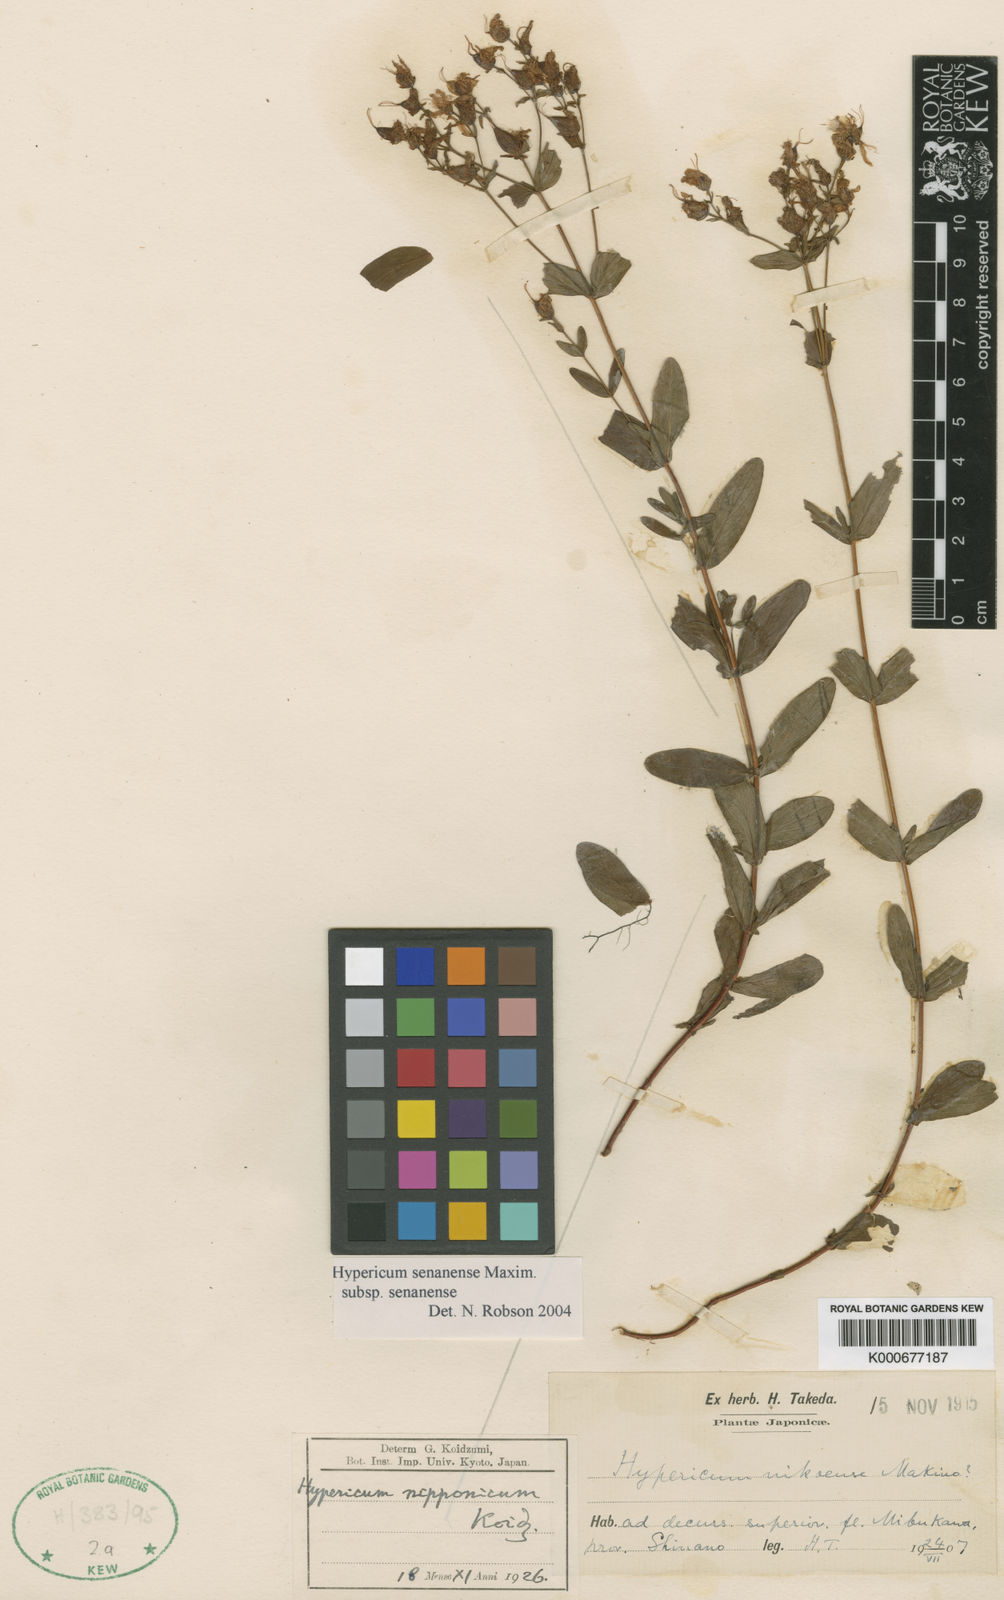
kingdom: Plantae
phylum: Tracheophyta
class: Magnoliopsida
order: Malpighiales
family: Hypericaceae
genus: Hypericum
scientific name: Hypericum senanense
